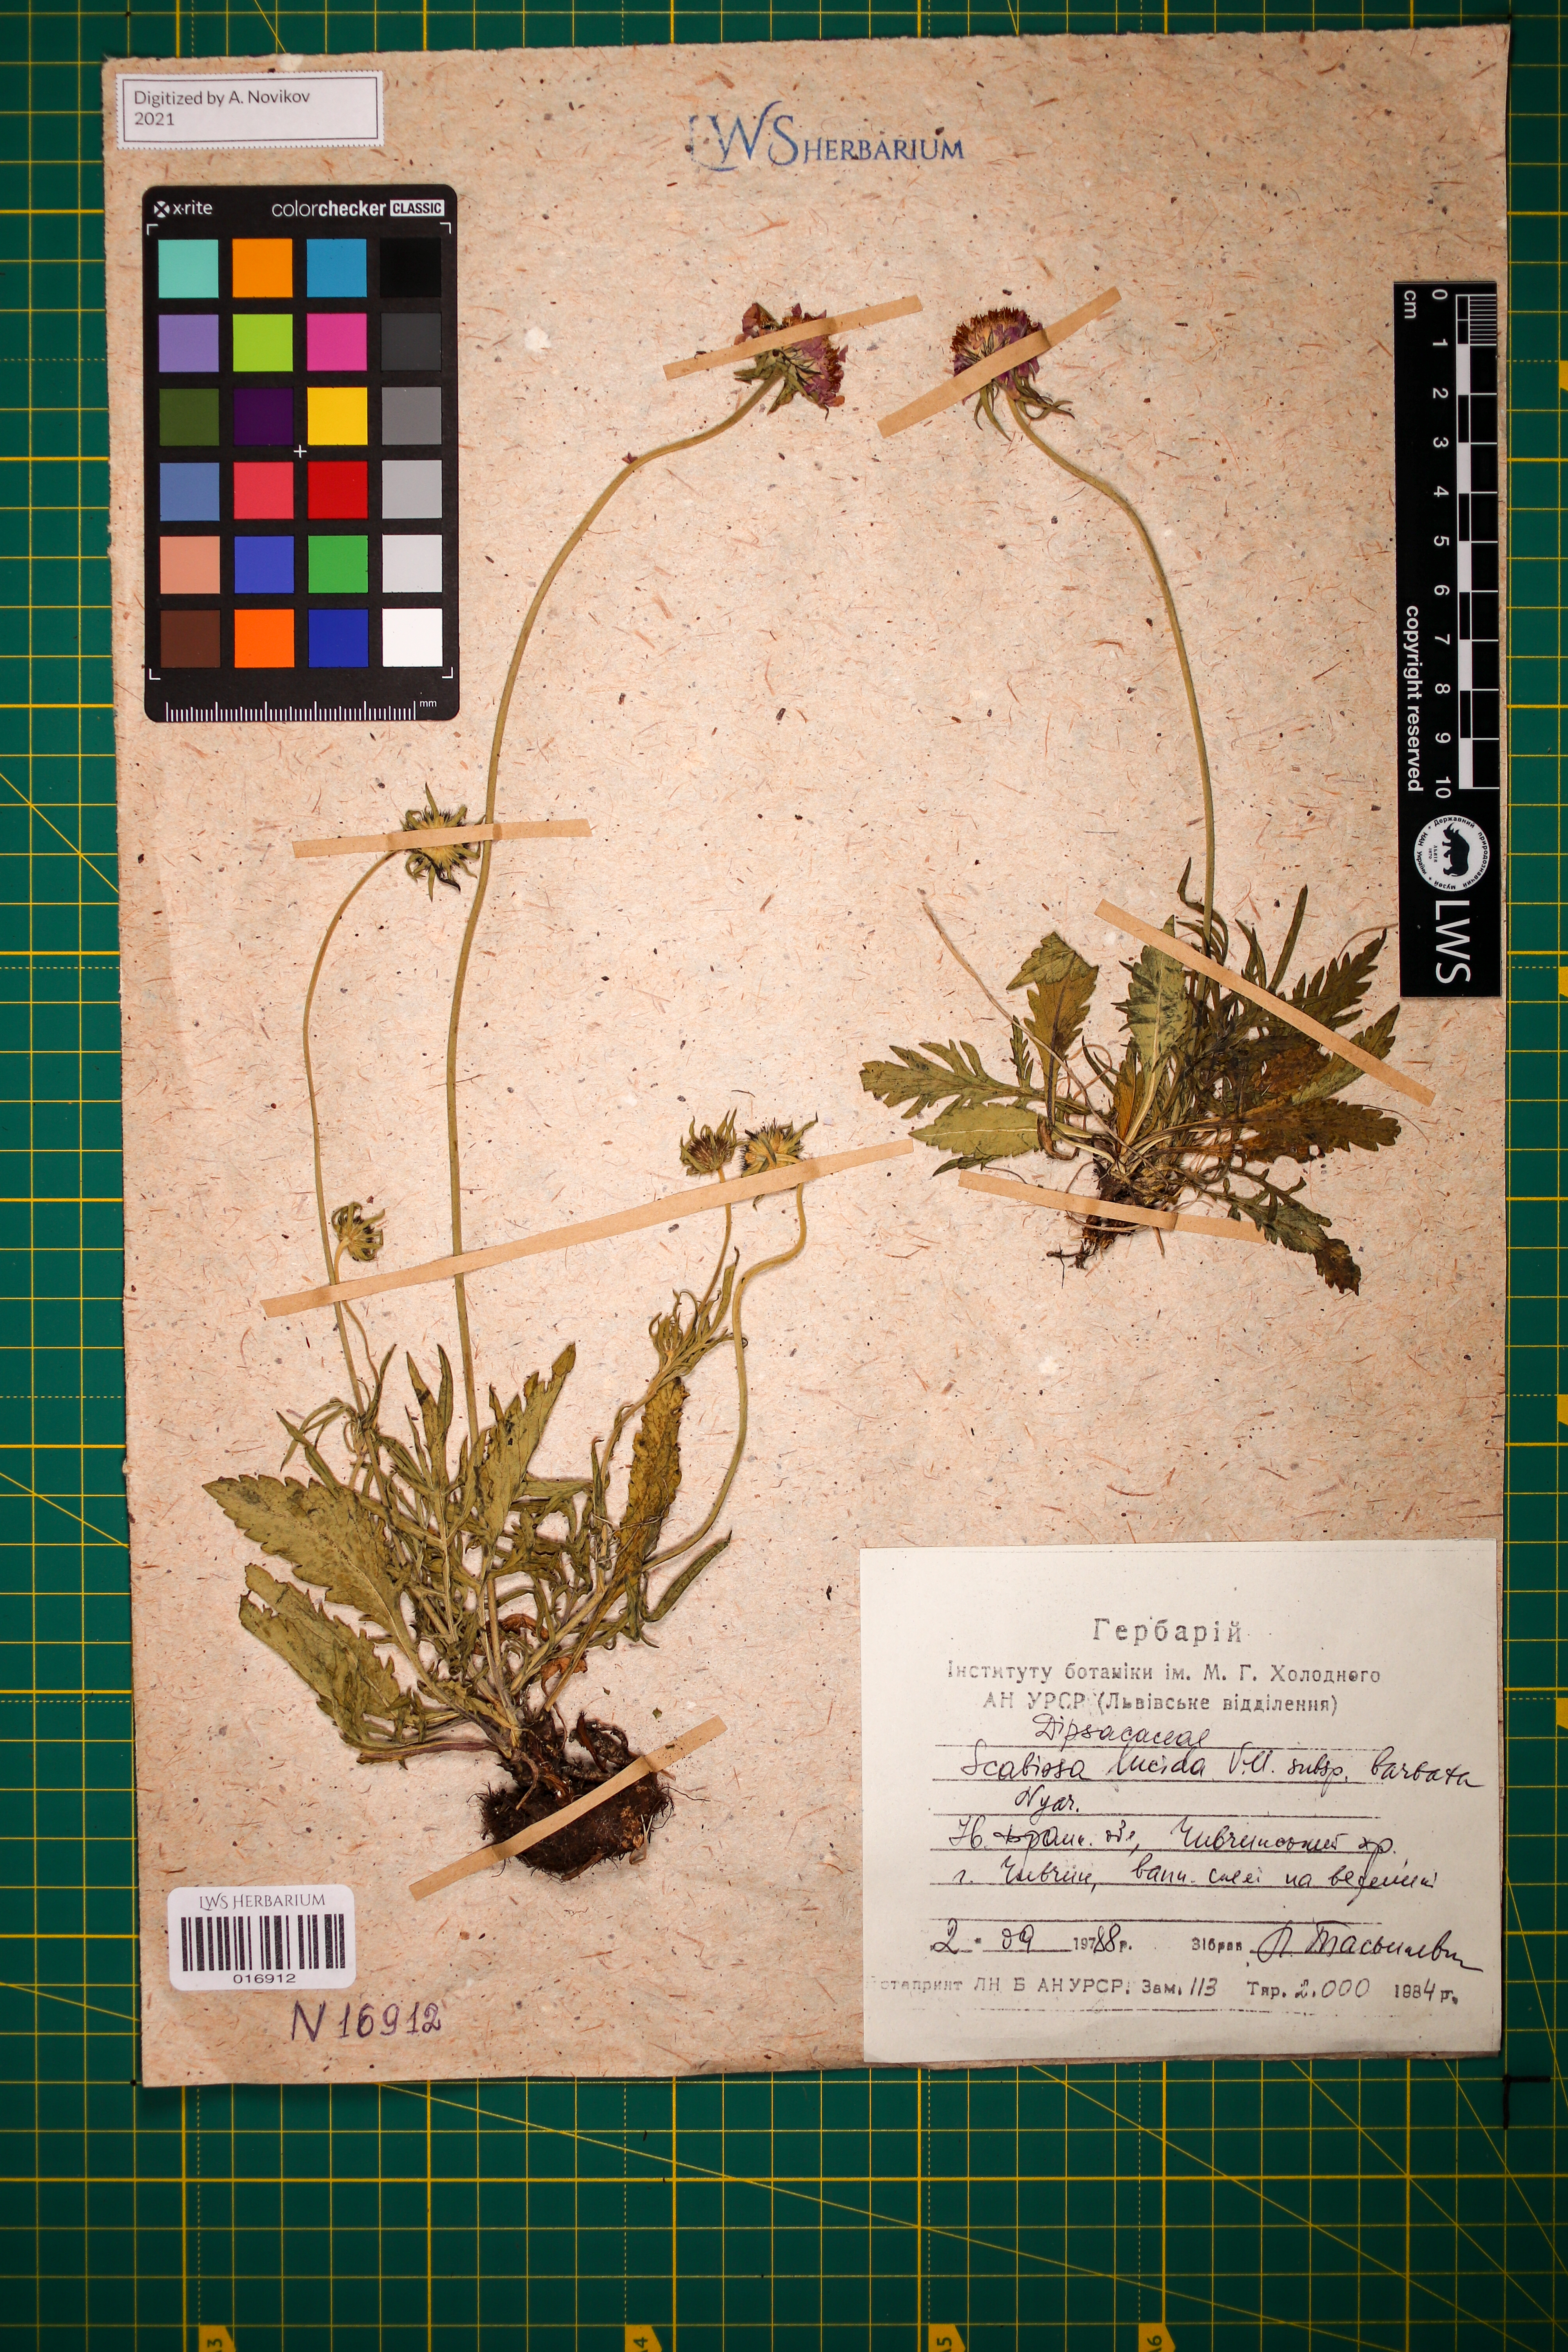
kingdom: Plantae
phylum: Tracheophyta
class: Magnoliopsida
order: Dipsacales
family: Caprifoliaceae
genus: Scabiosa
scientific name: Scabiosa lucida
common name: Shining scabious
